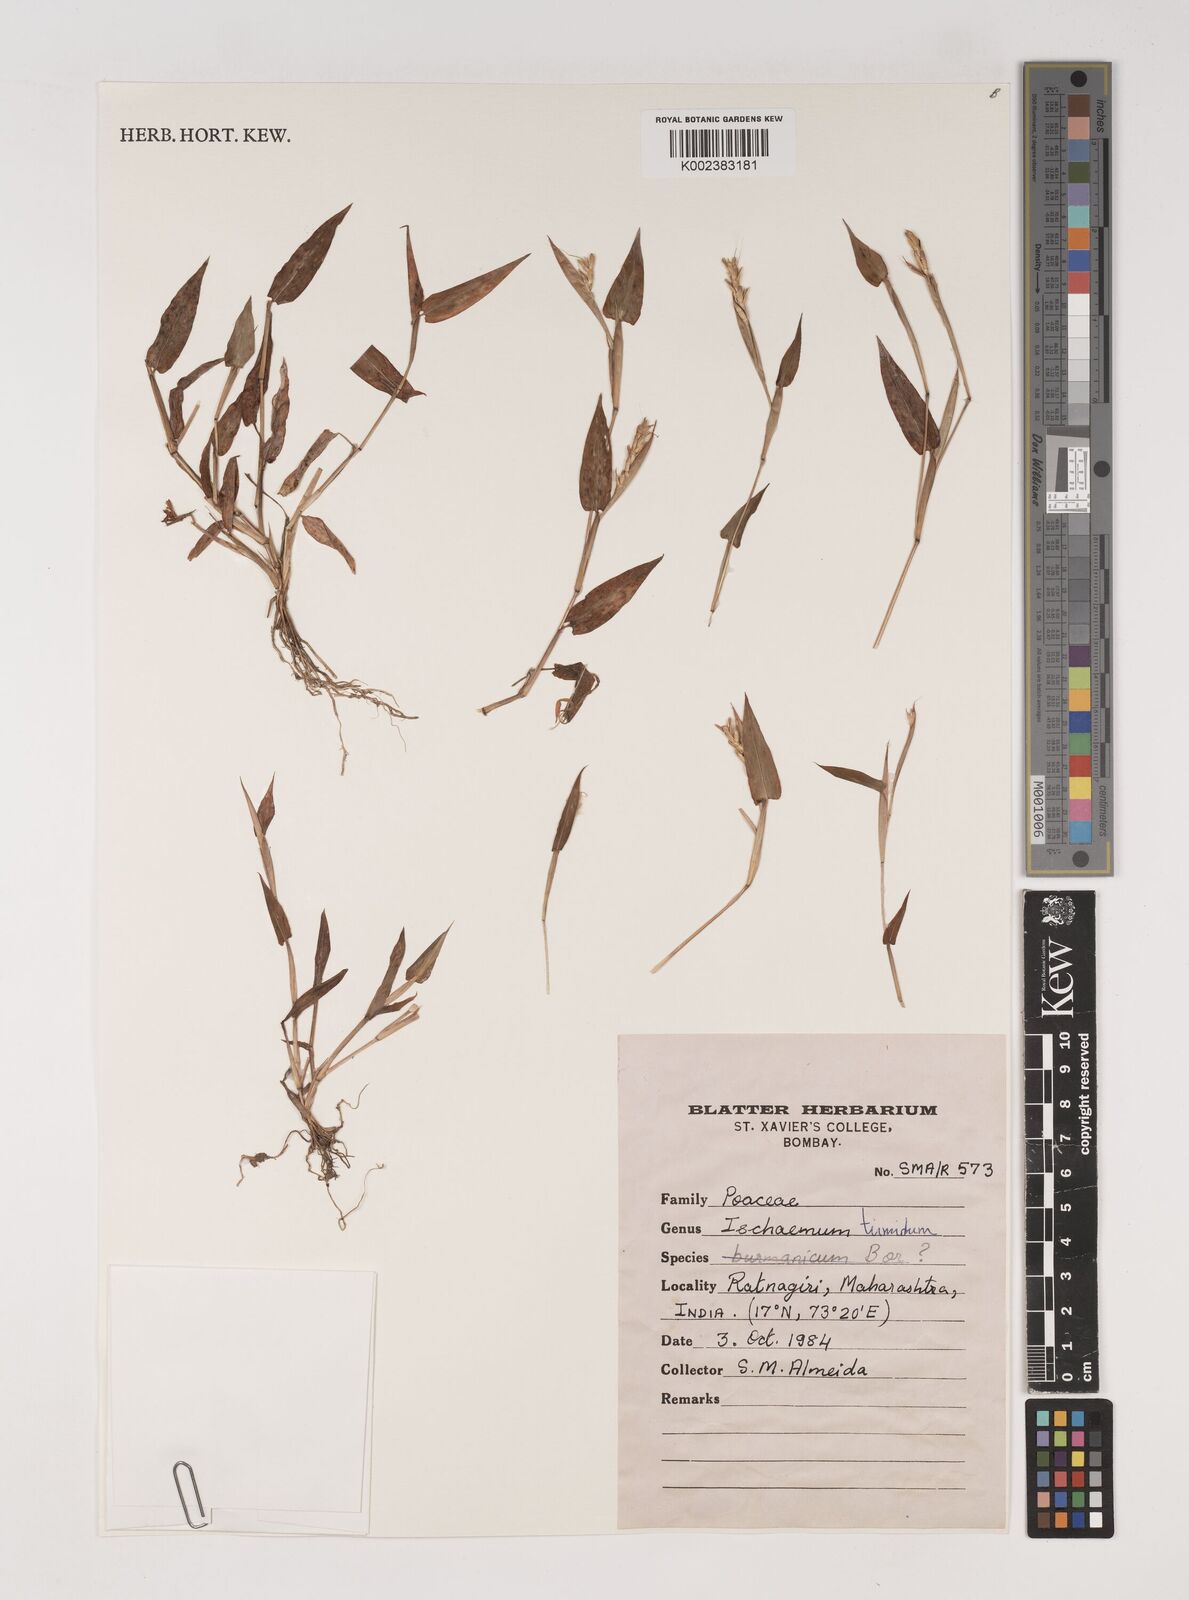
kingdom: Plantae
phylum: Tracheophyta
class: Liliopsida
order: Poales
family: Poaceae
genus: Ischaemum
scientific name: Ischaemum tumidum
